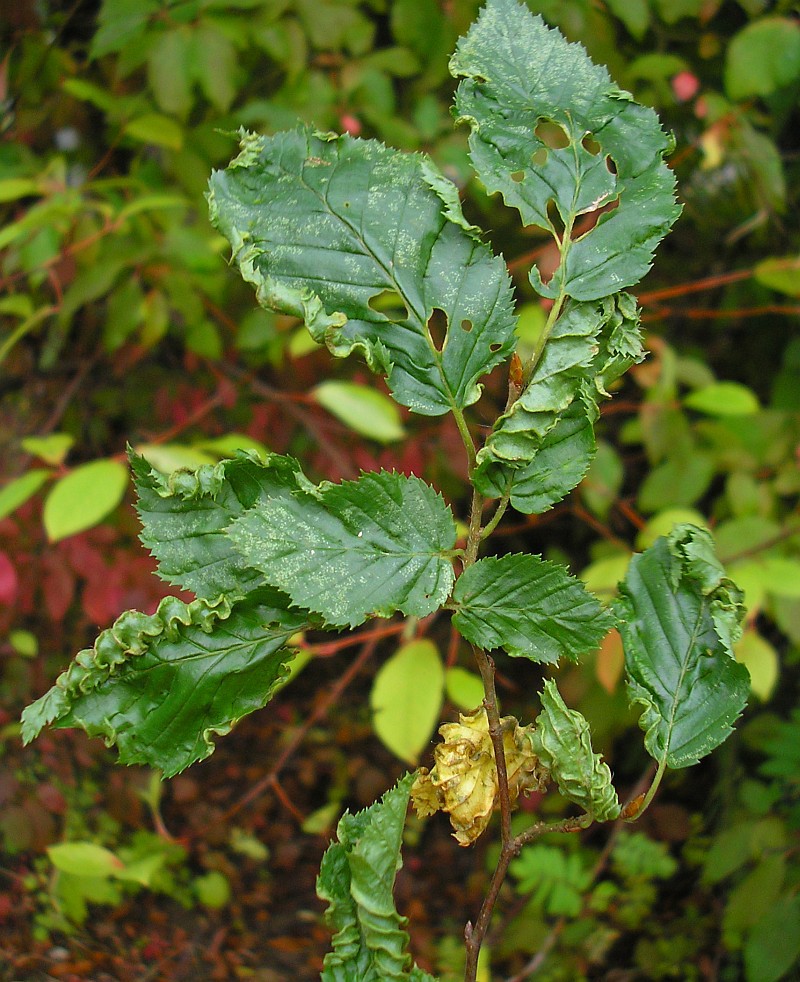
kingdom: Animalia
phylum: Arthropoda
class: Arachnida
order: Trombidiformes
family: Eriophyidae
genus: Aculops
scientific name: Aculops macrotrichus
